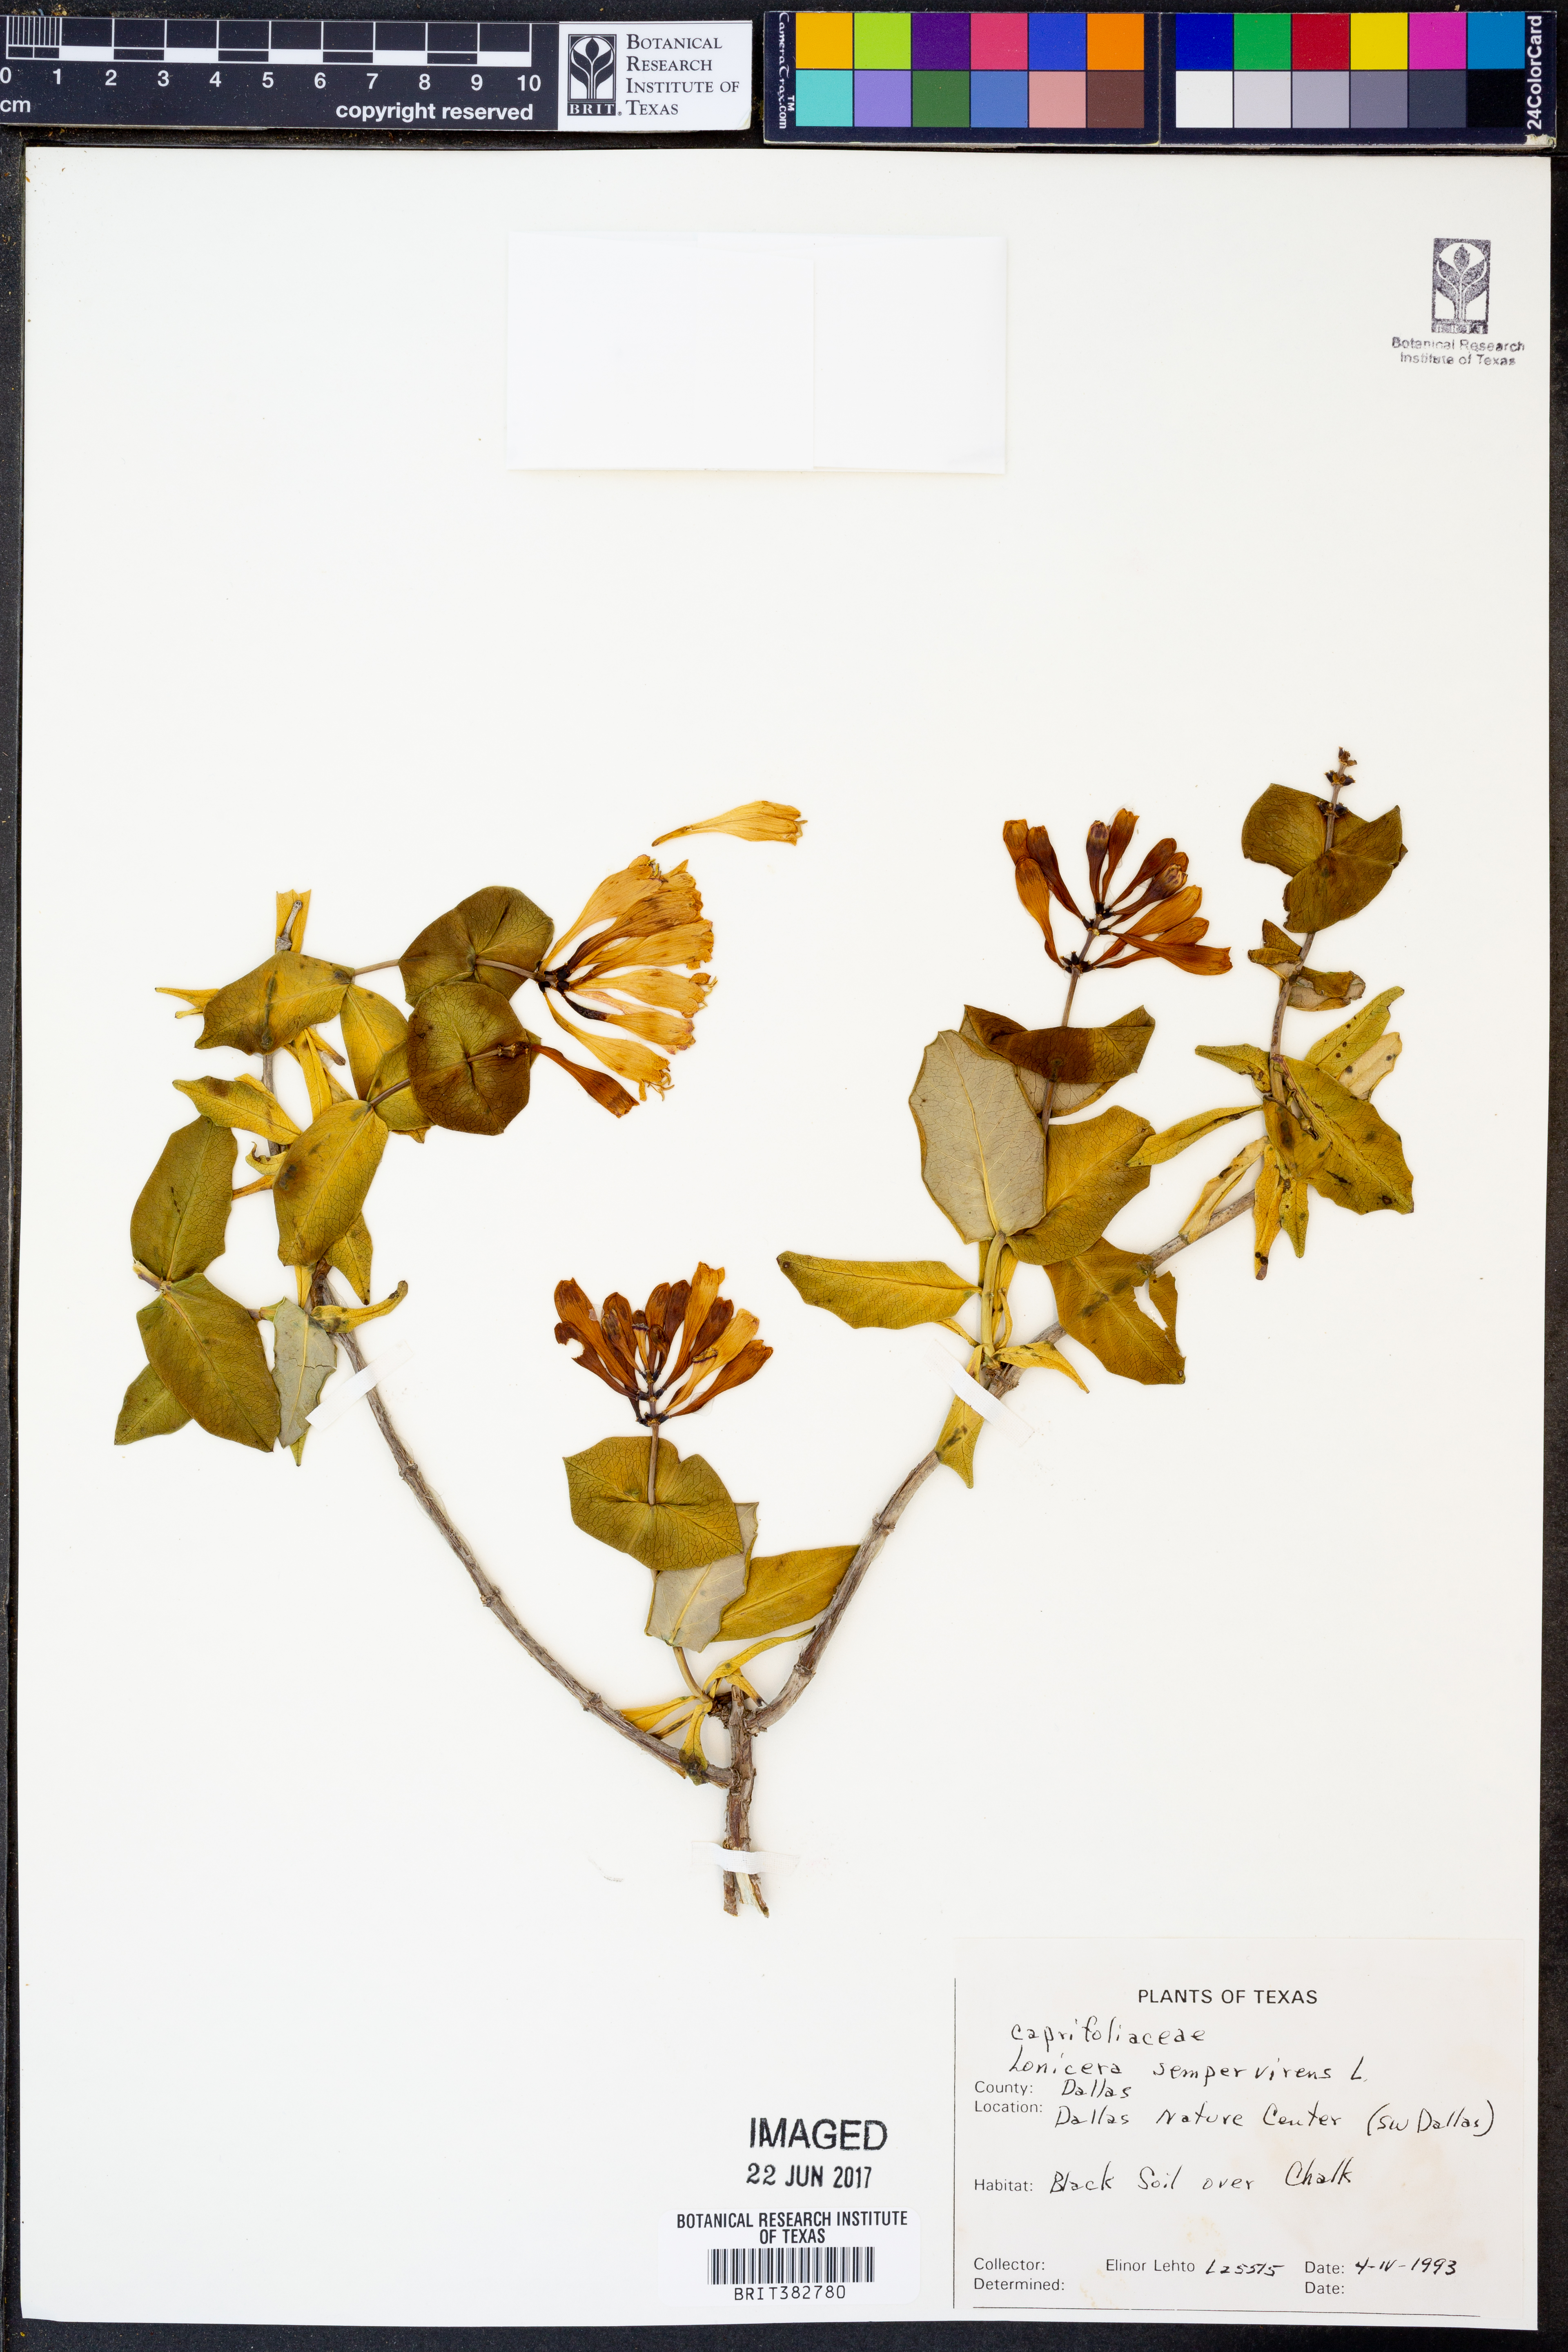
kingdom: Plantae
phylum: Tracheophyta
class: Magnoliopsida
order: Dipsacales
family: Caprifoliaceae
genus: Lonicera
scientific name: Lonicera sempervirens
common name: Coral honeysuckle
